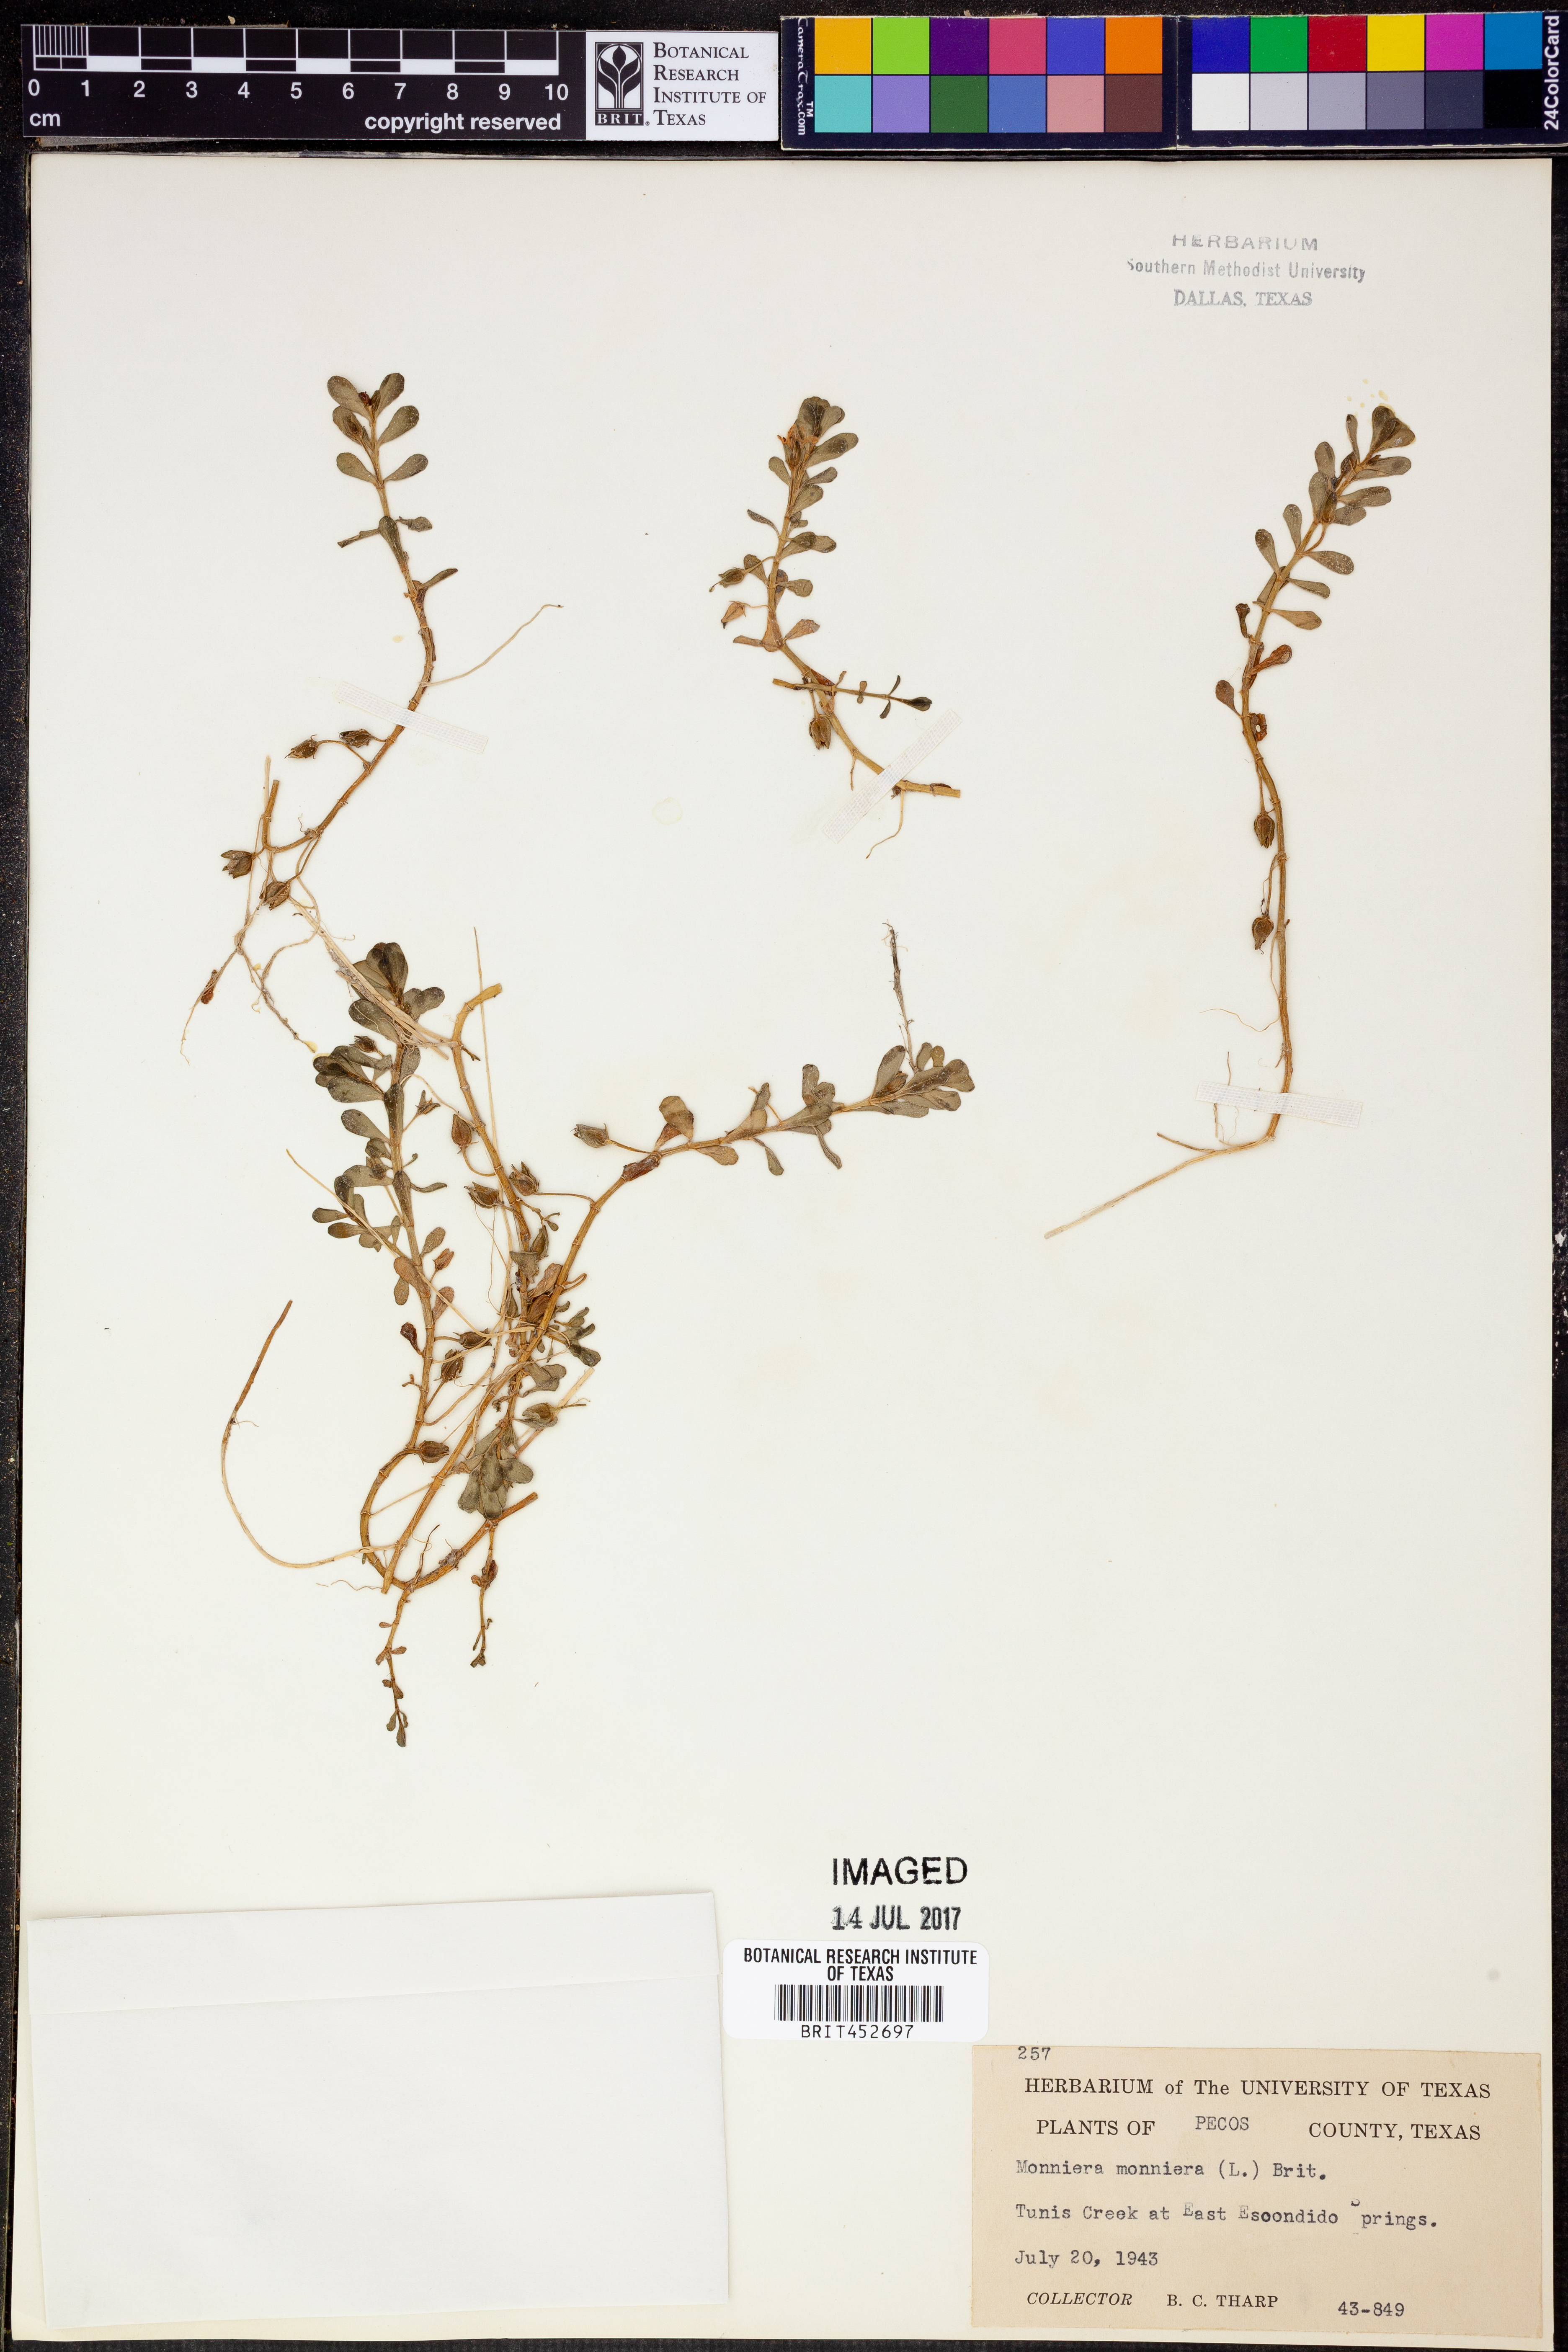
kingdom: Plantae
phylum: Tracheophyta
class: Magnoliopsida
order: Lamiales
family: Plantaginaceae
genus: Bacopa
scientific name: Bacopa monnieri
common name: Indian-pennywort
